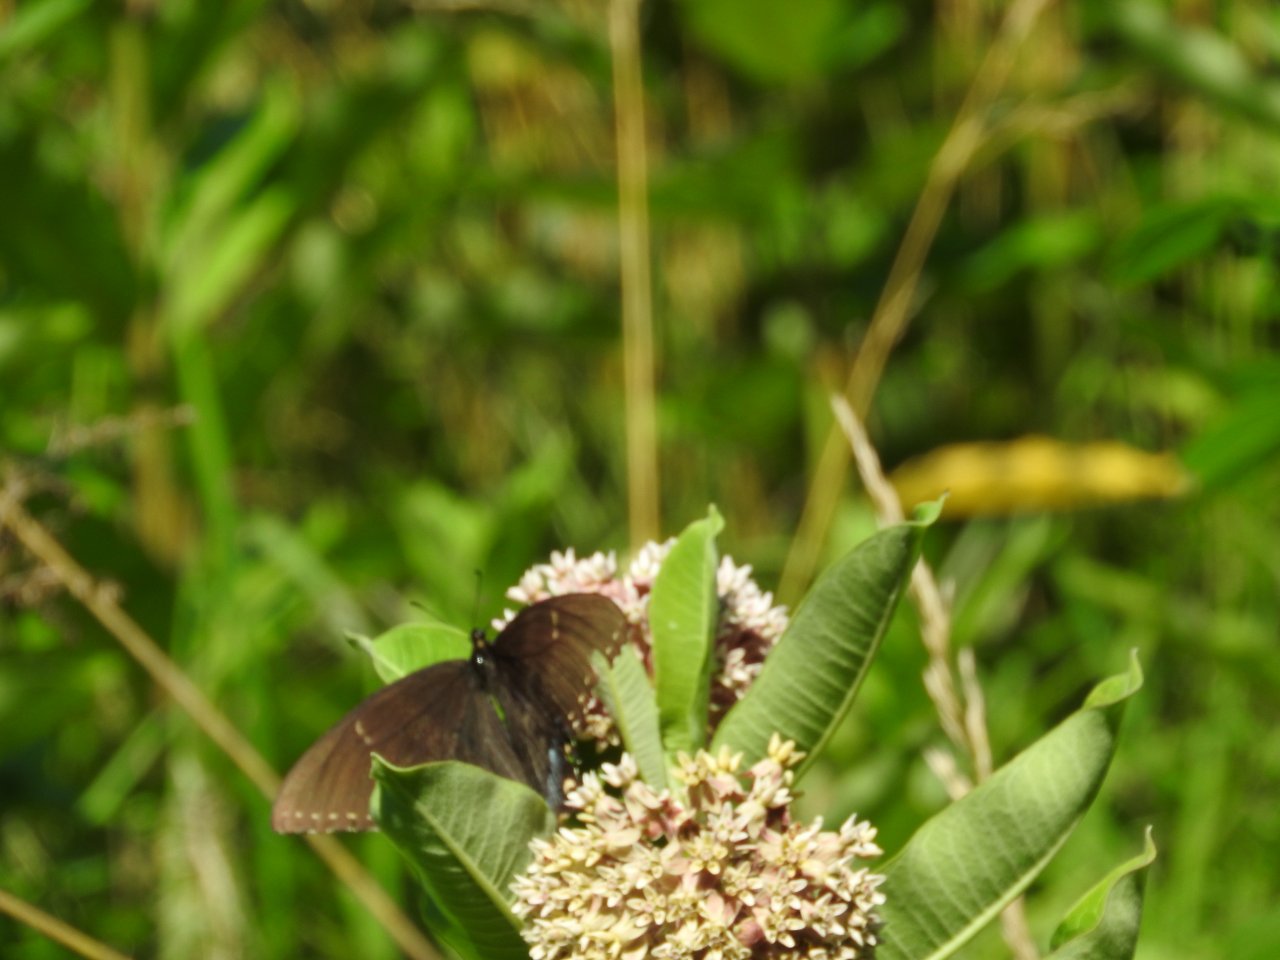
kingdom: Animalia
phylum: Arthropoda
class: Insecta
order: Lepidoptera
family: Papilionidae
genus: Pterourus
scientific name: Pterourus glaucus
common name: Eastern Tiger Swallowtail
